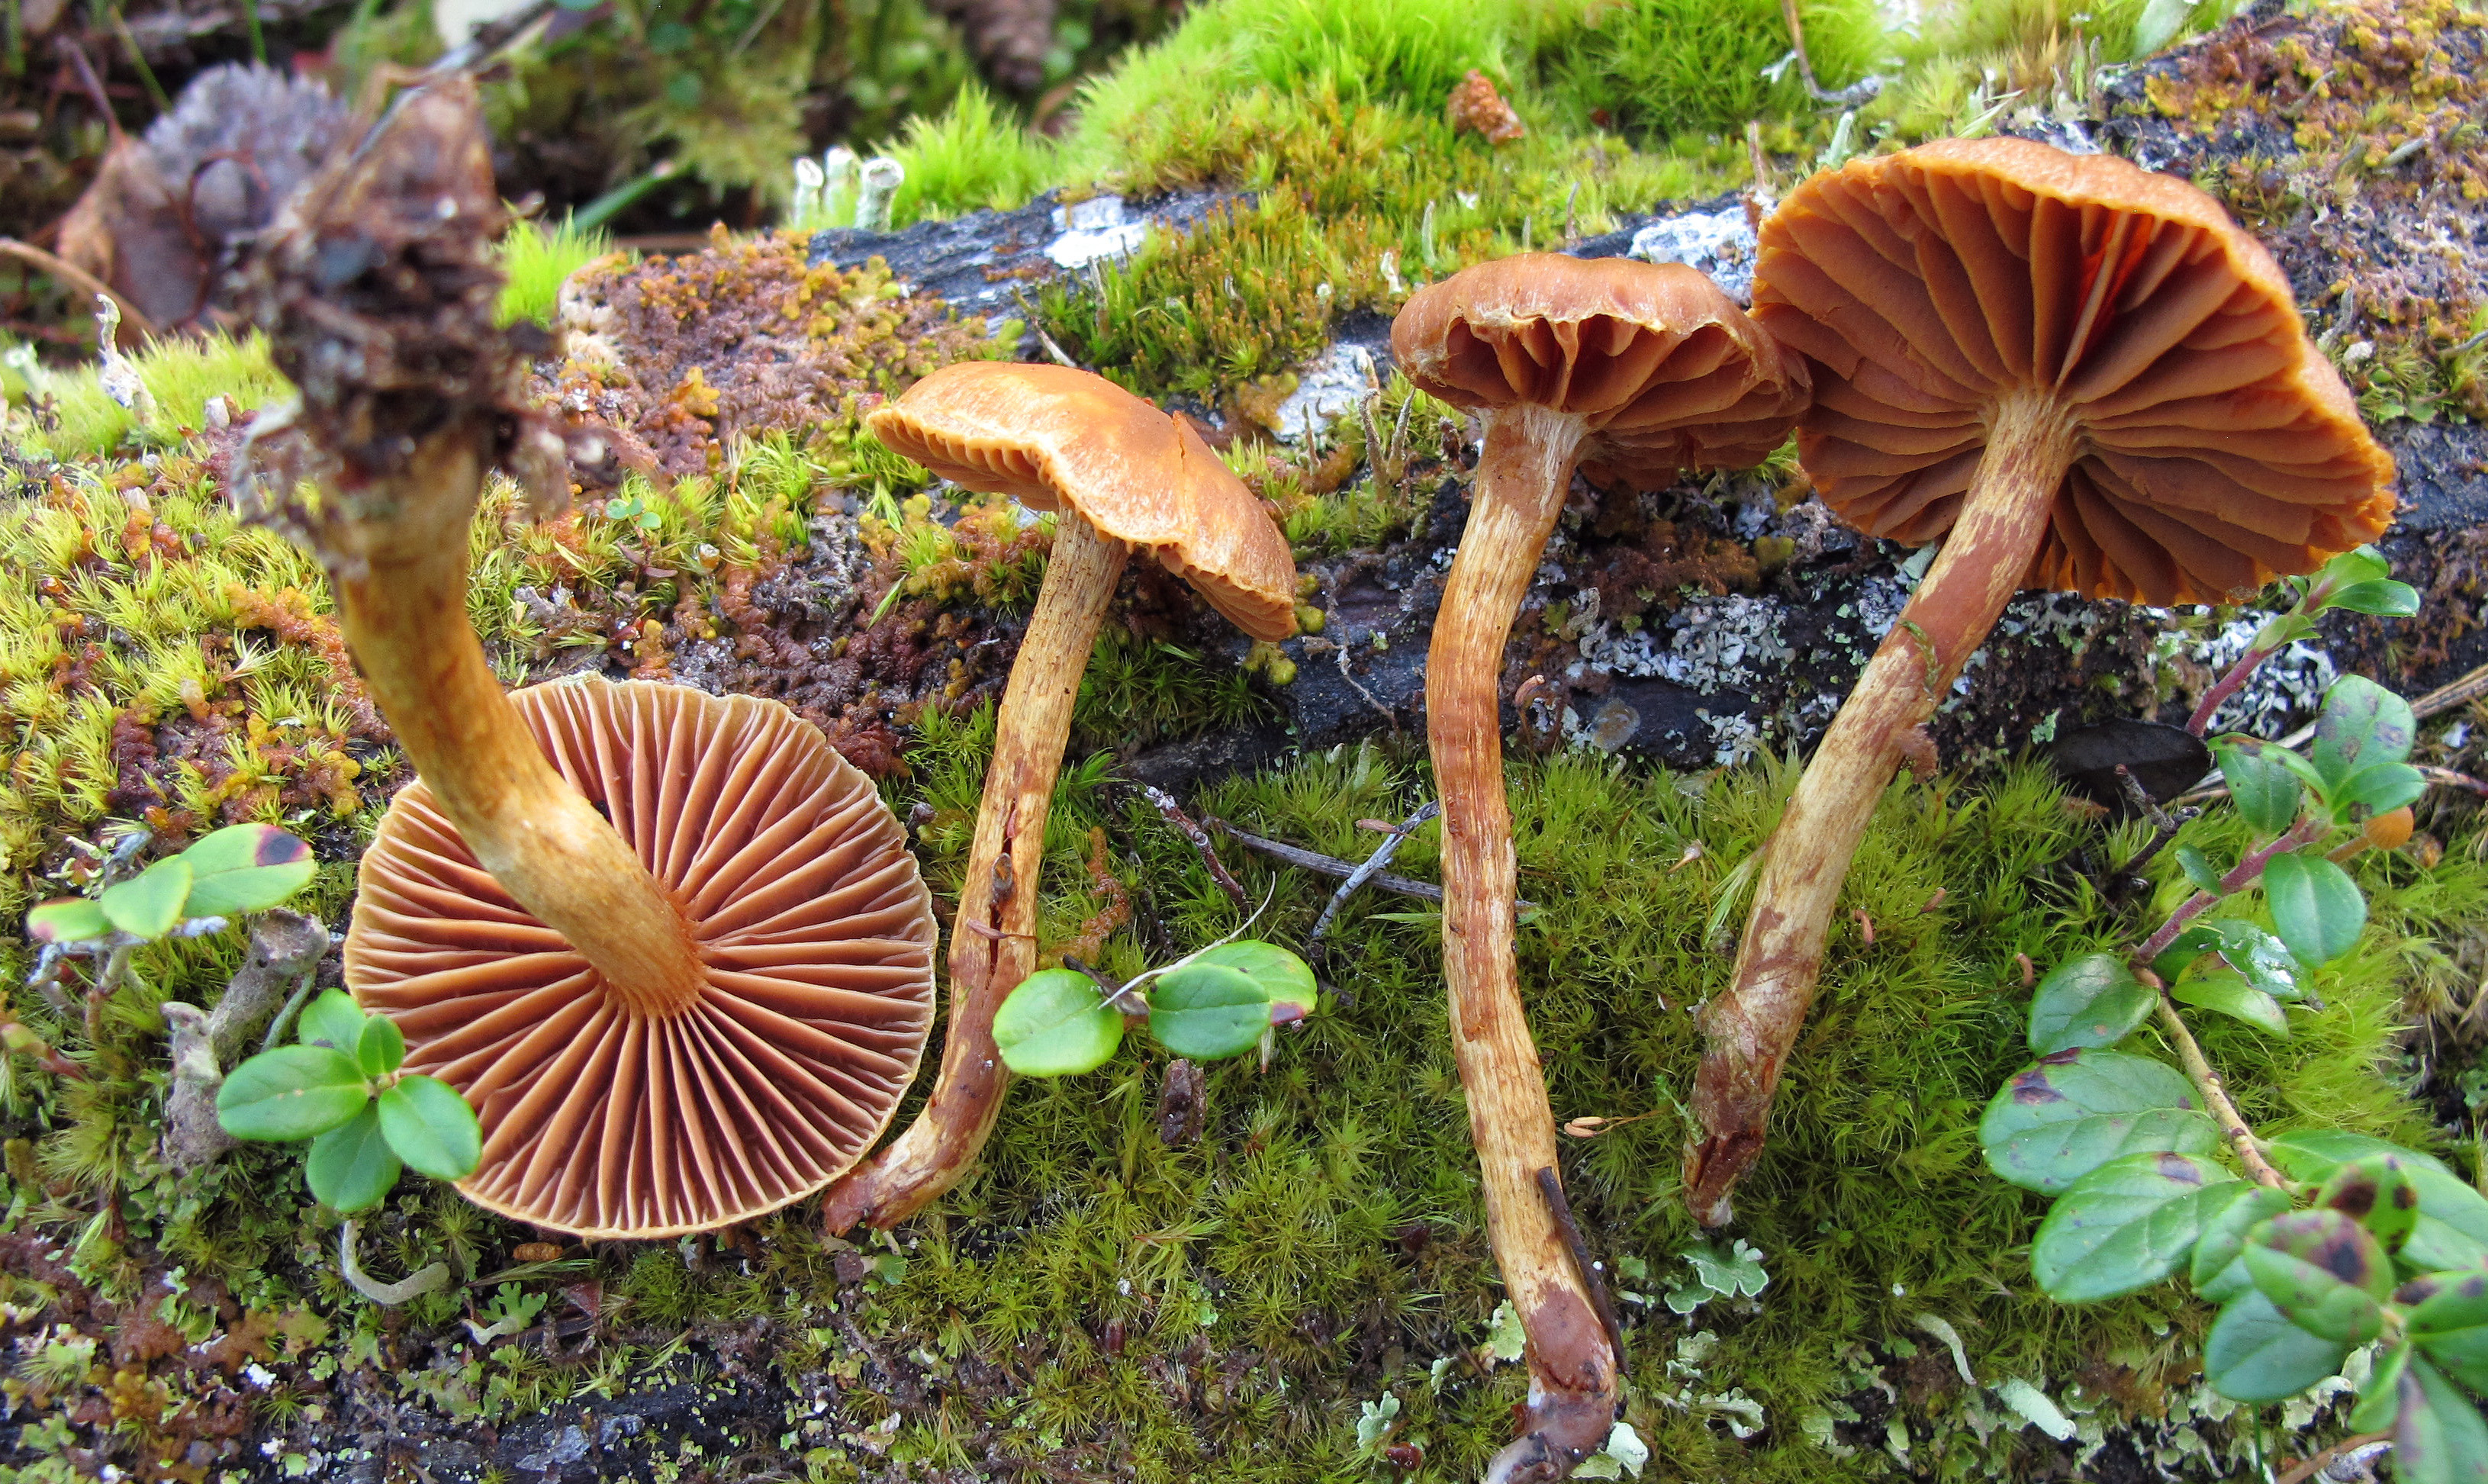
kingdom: Fungi
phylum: Basidiomycota
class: Agaricomycetes
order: Agaricales
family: Cortinariaceae
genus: Cortinarius
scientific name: Cortinarius gentilis
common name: Conifer webcap
